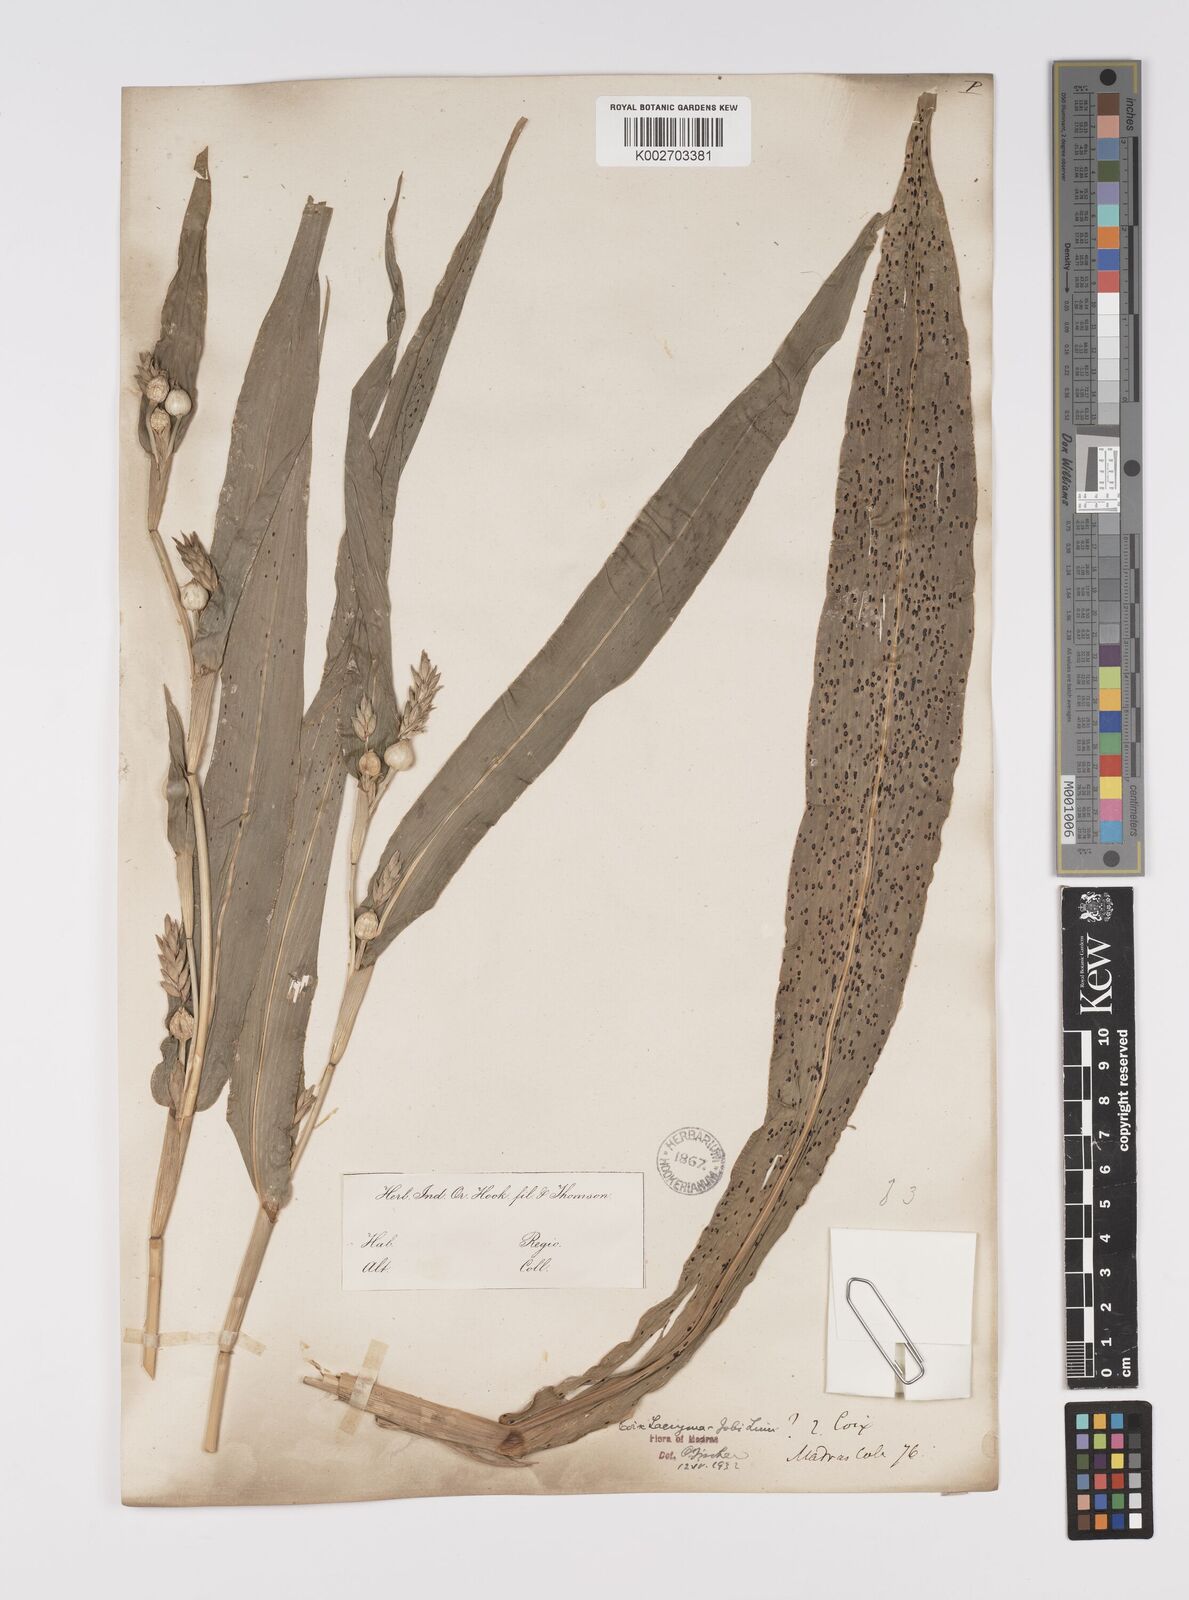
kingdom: Plantae
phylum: Tracheophyta
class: Liliopsida
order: Poales
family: Poaceae
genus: Coix
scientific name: Coix lacryma-jobi
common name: Job's tears
